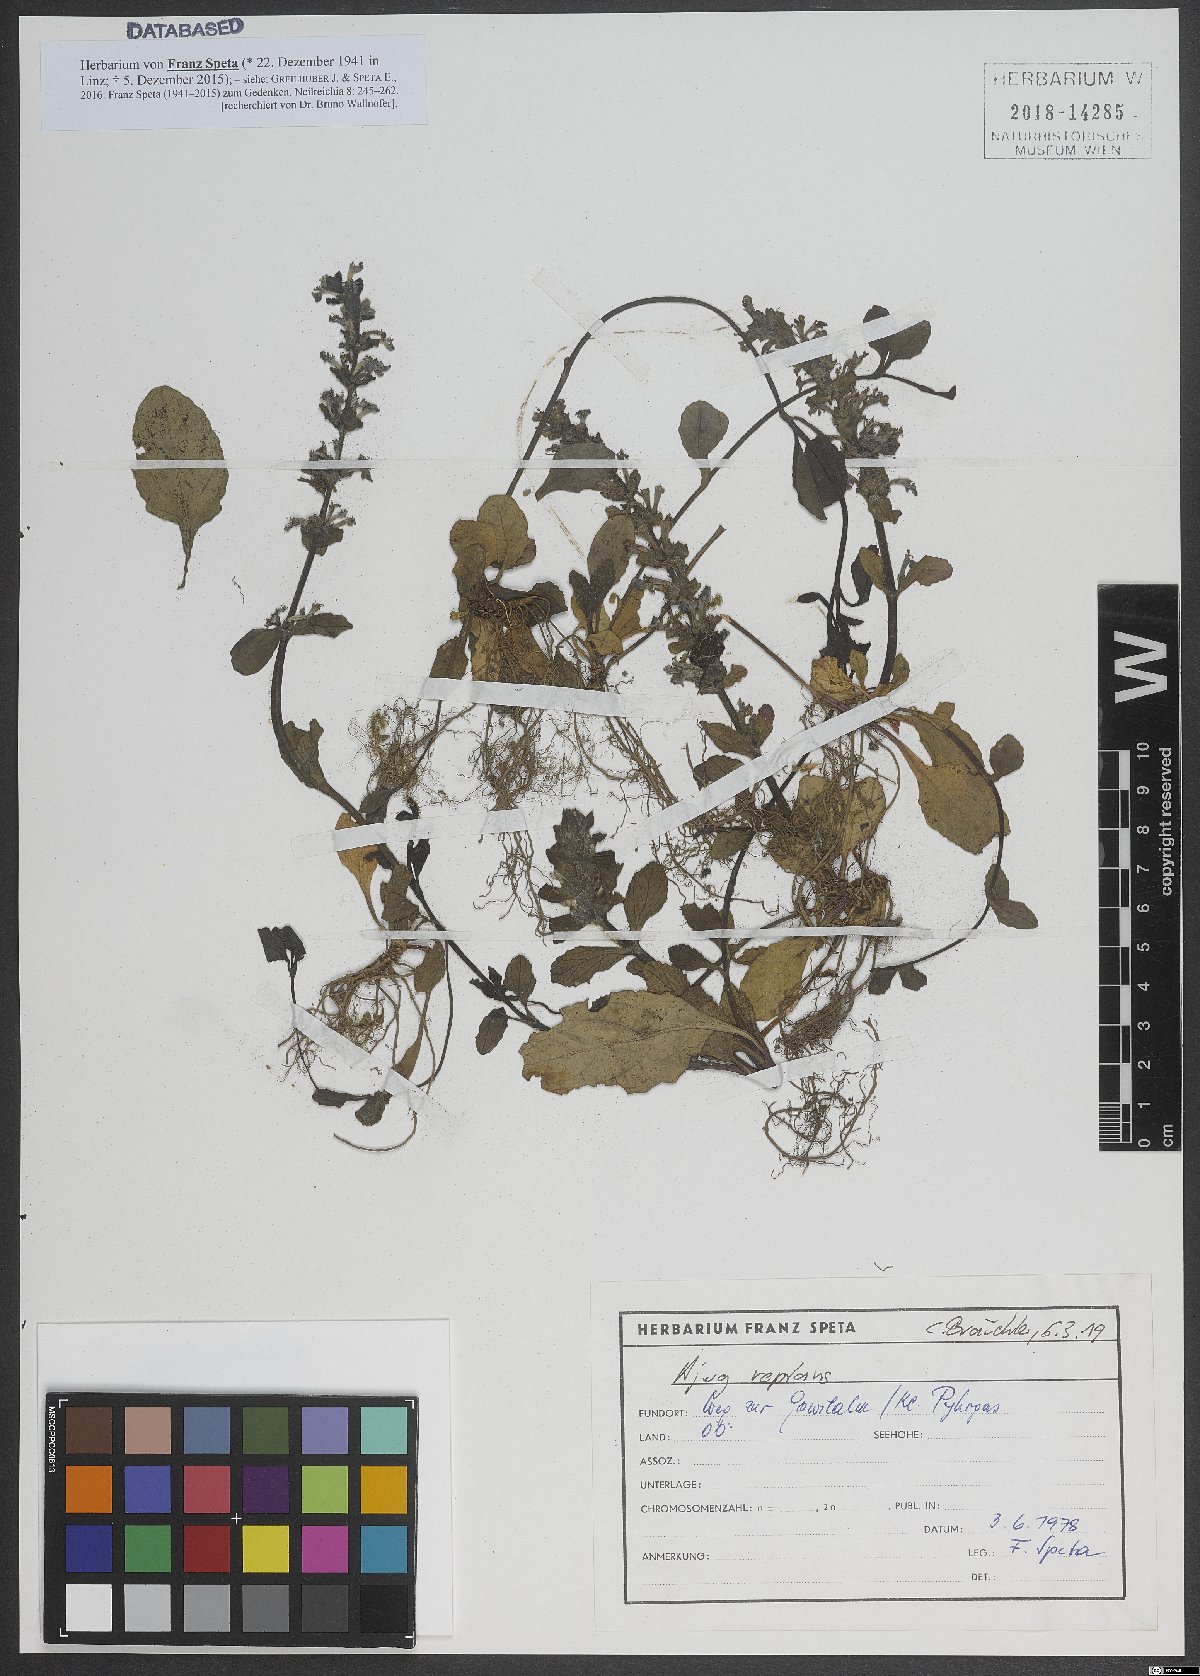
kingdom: Plantae
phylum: Tracheophyta
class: Magnoliopsida
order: Lamiales
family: Lamiaceae
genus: Ajuga
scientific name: Ajuga reptans
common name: Bugle
